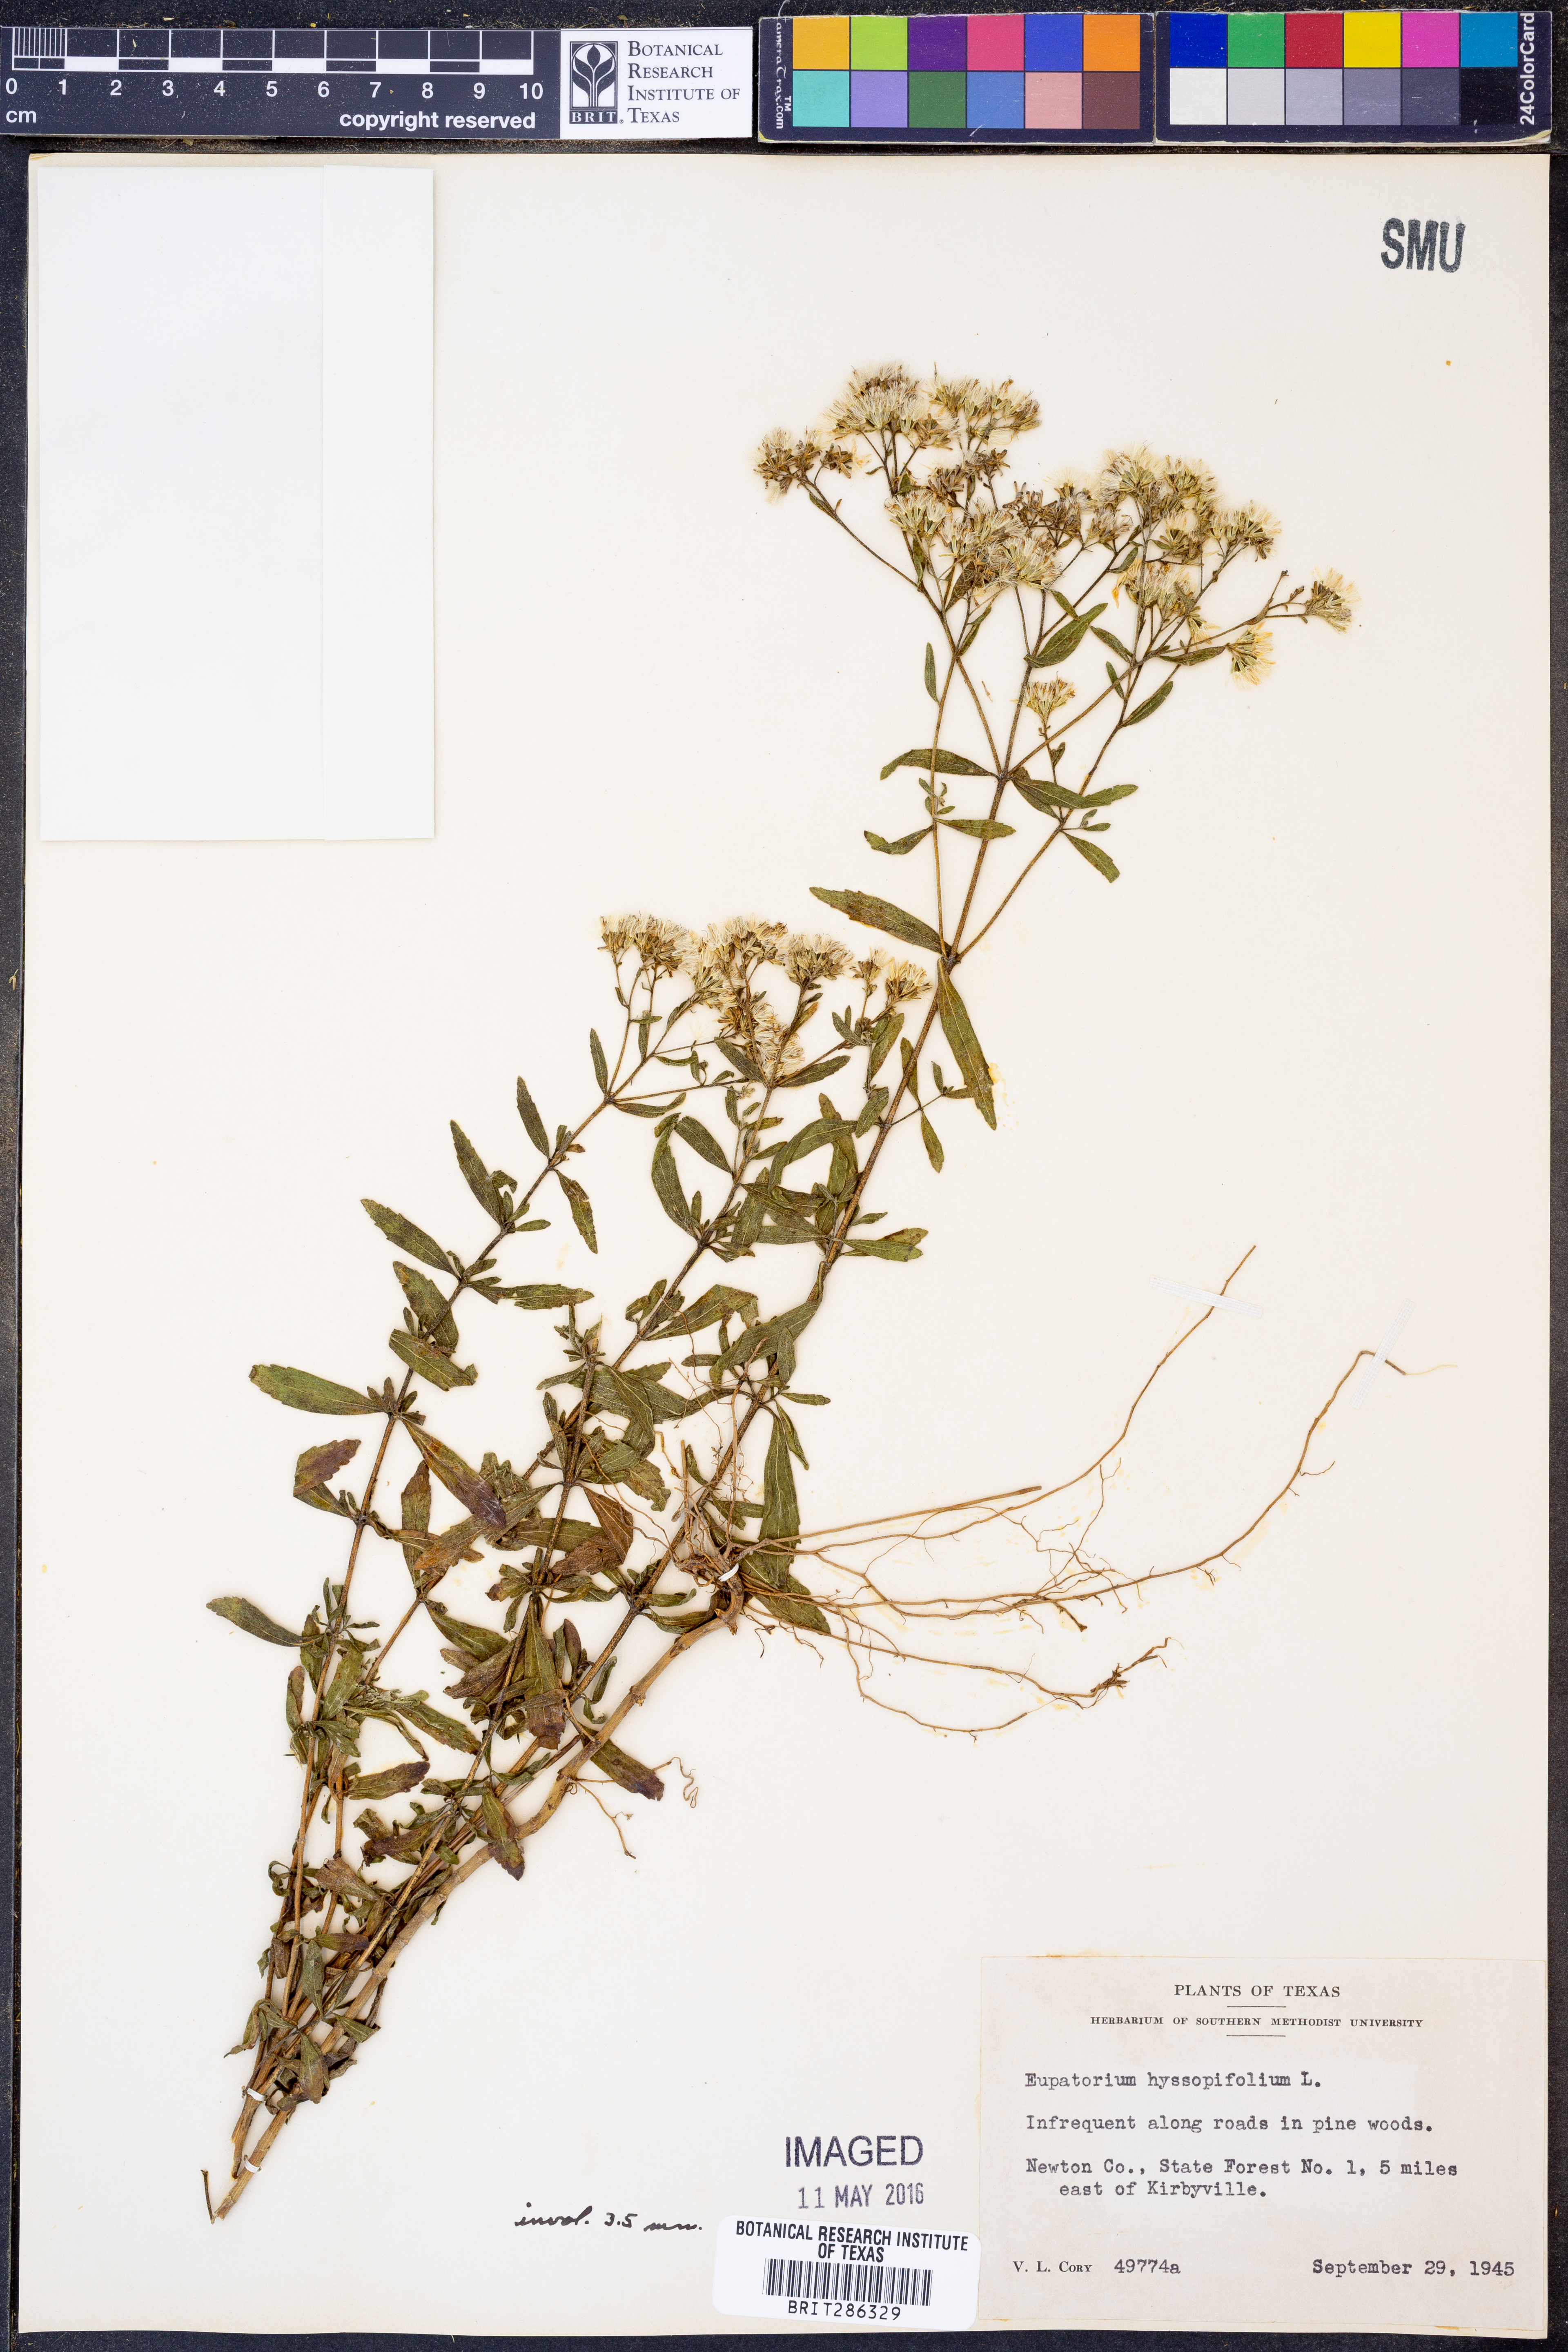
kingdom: Plantae
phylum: Tracheophyta
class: Magnoliopsida
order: Asterales
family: Asteraceae
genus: Eupatorium
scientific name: Eupatorium hyssopifolium
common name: Hyssop-leaf thoroughwort
